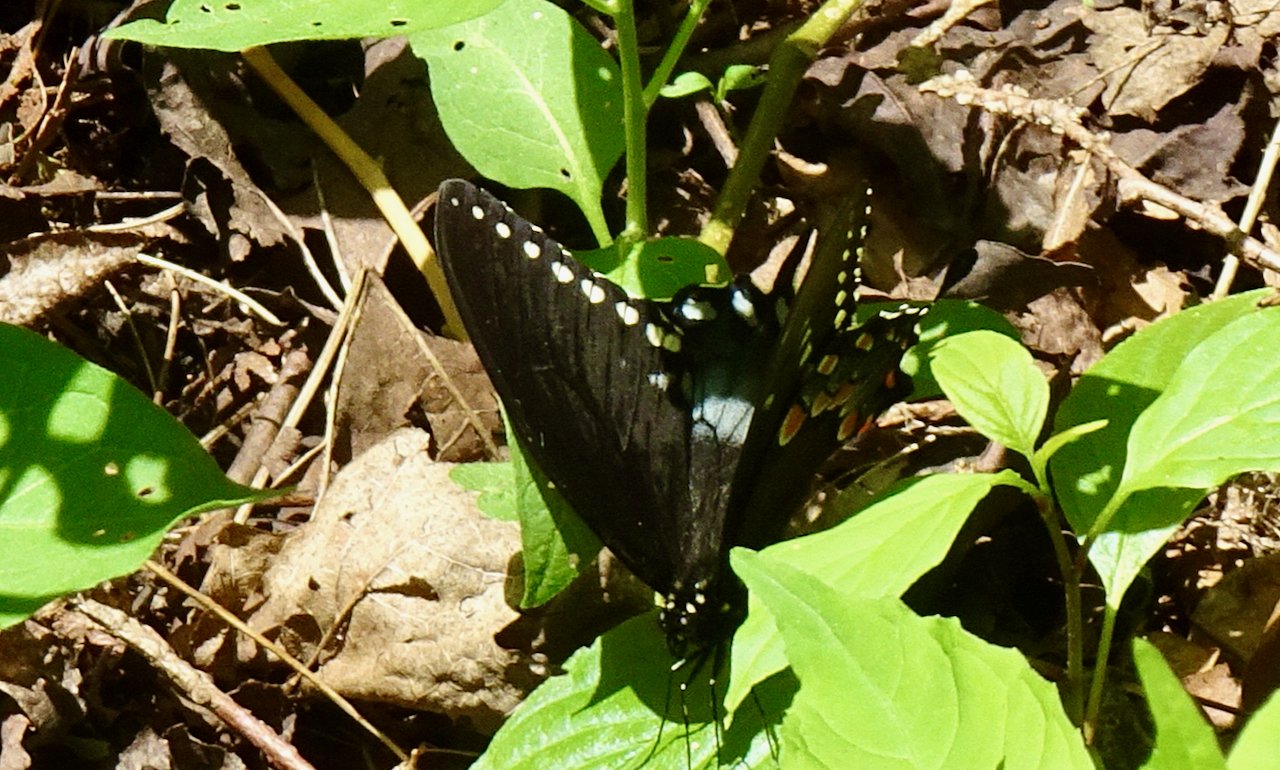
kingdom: Animalia
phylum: Arthropoda
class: Insecta
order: Lepidoptera
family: Papilionidae
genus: Pterourus
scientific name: Pterourus troilus
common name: Spicebush Swallowtail
